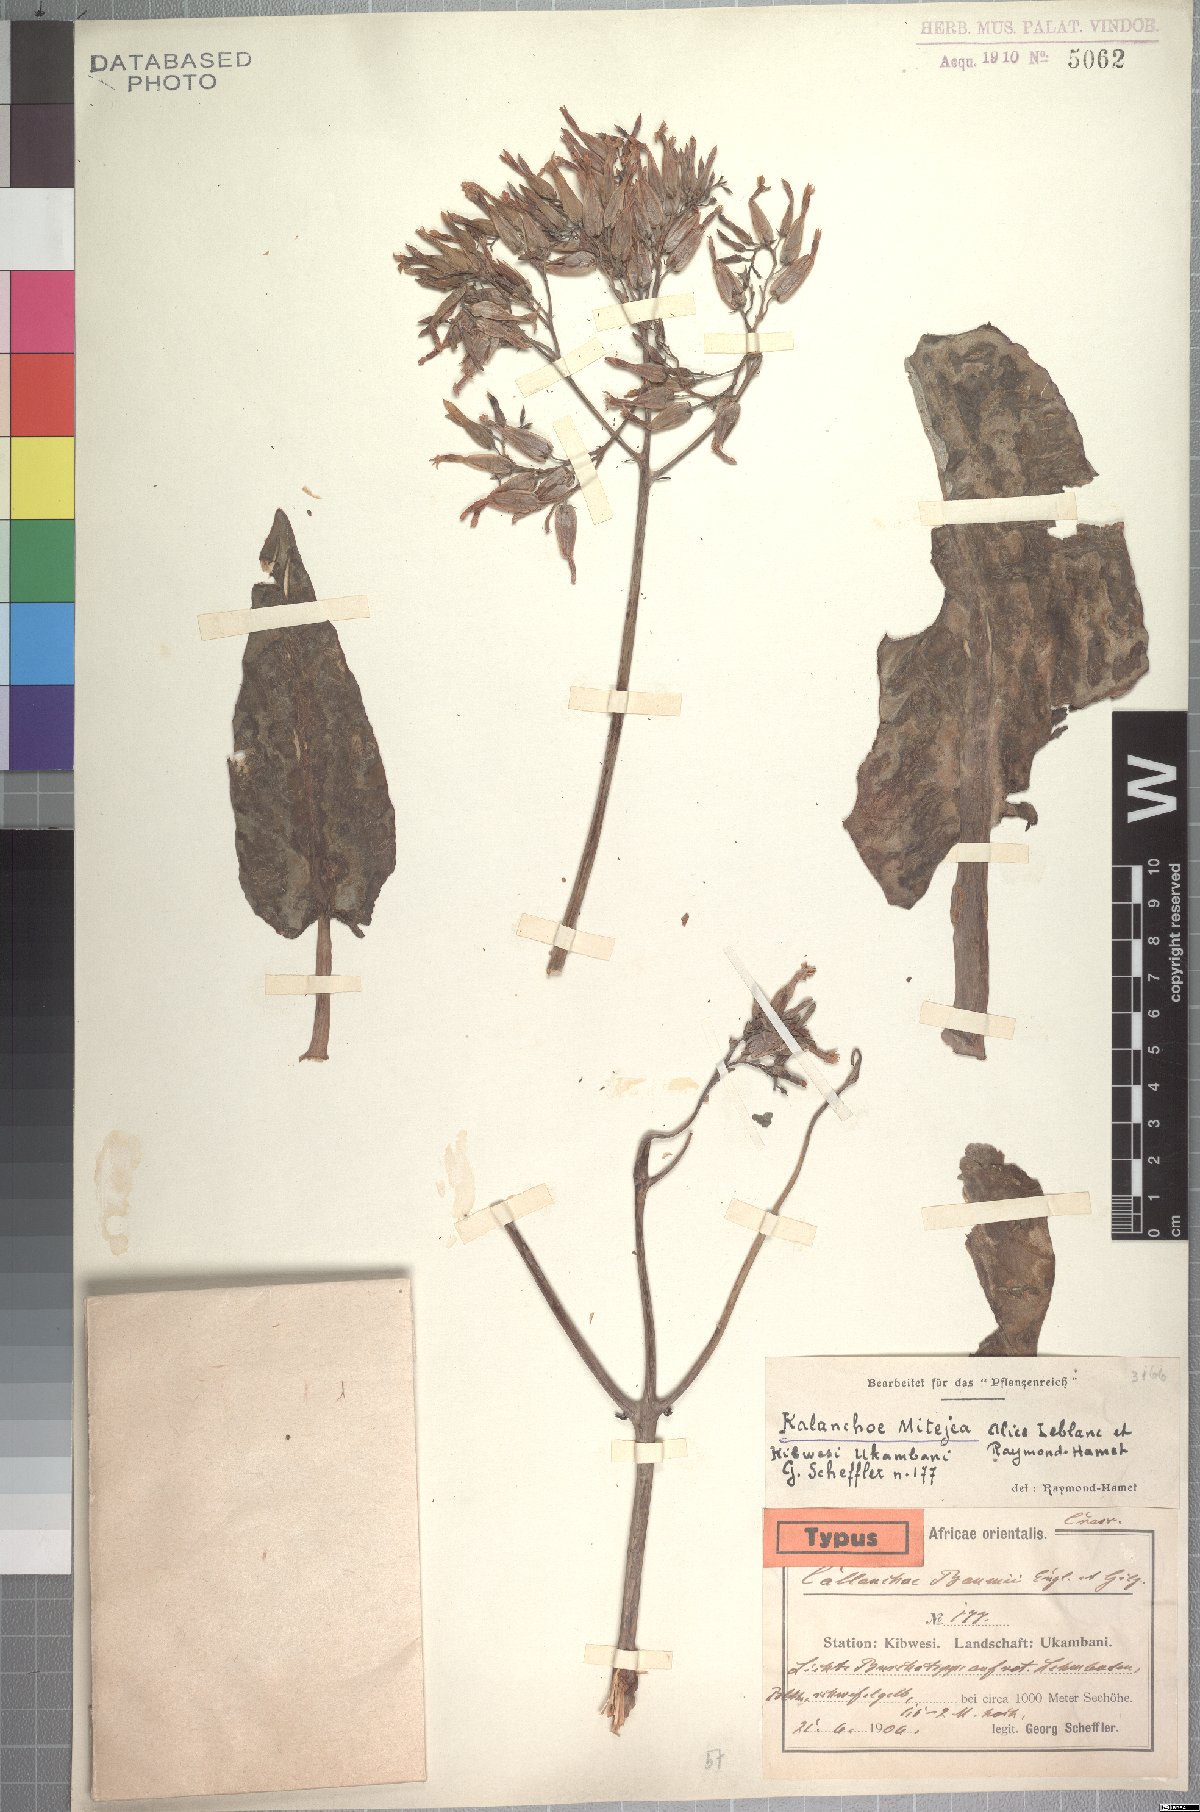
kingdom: Plantae
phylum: Tracheophyta
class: Magnoliopsida
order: Saxifragales
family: Crassulaceae
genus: Kalanchoe
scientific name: Kalanchoe mitejea
